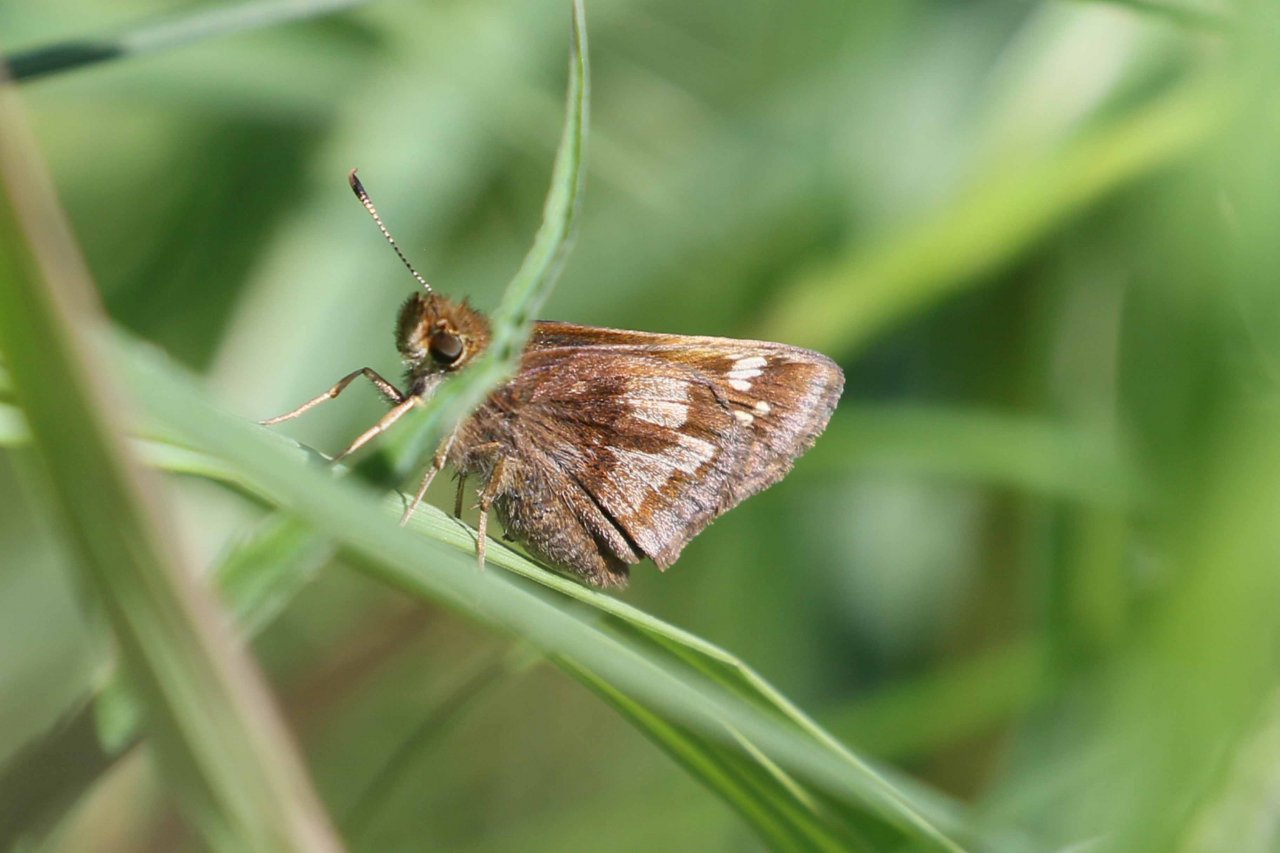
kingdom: Animalia
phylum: Arthropoda
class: Insecta
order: Lepidoptera
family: Hesperiidae
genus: Lon
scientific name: Lon hobomok
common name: Hobomok Skipper
